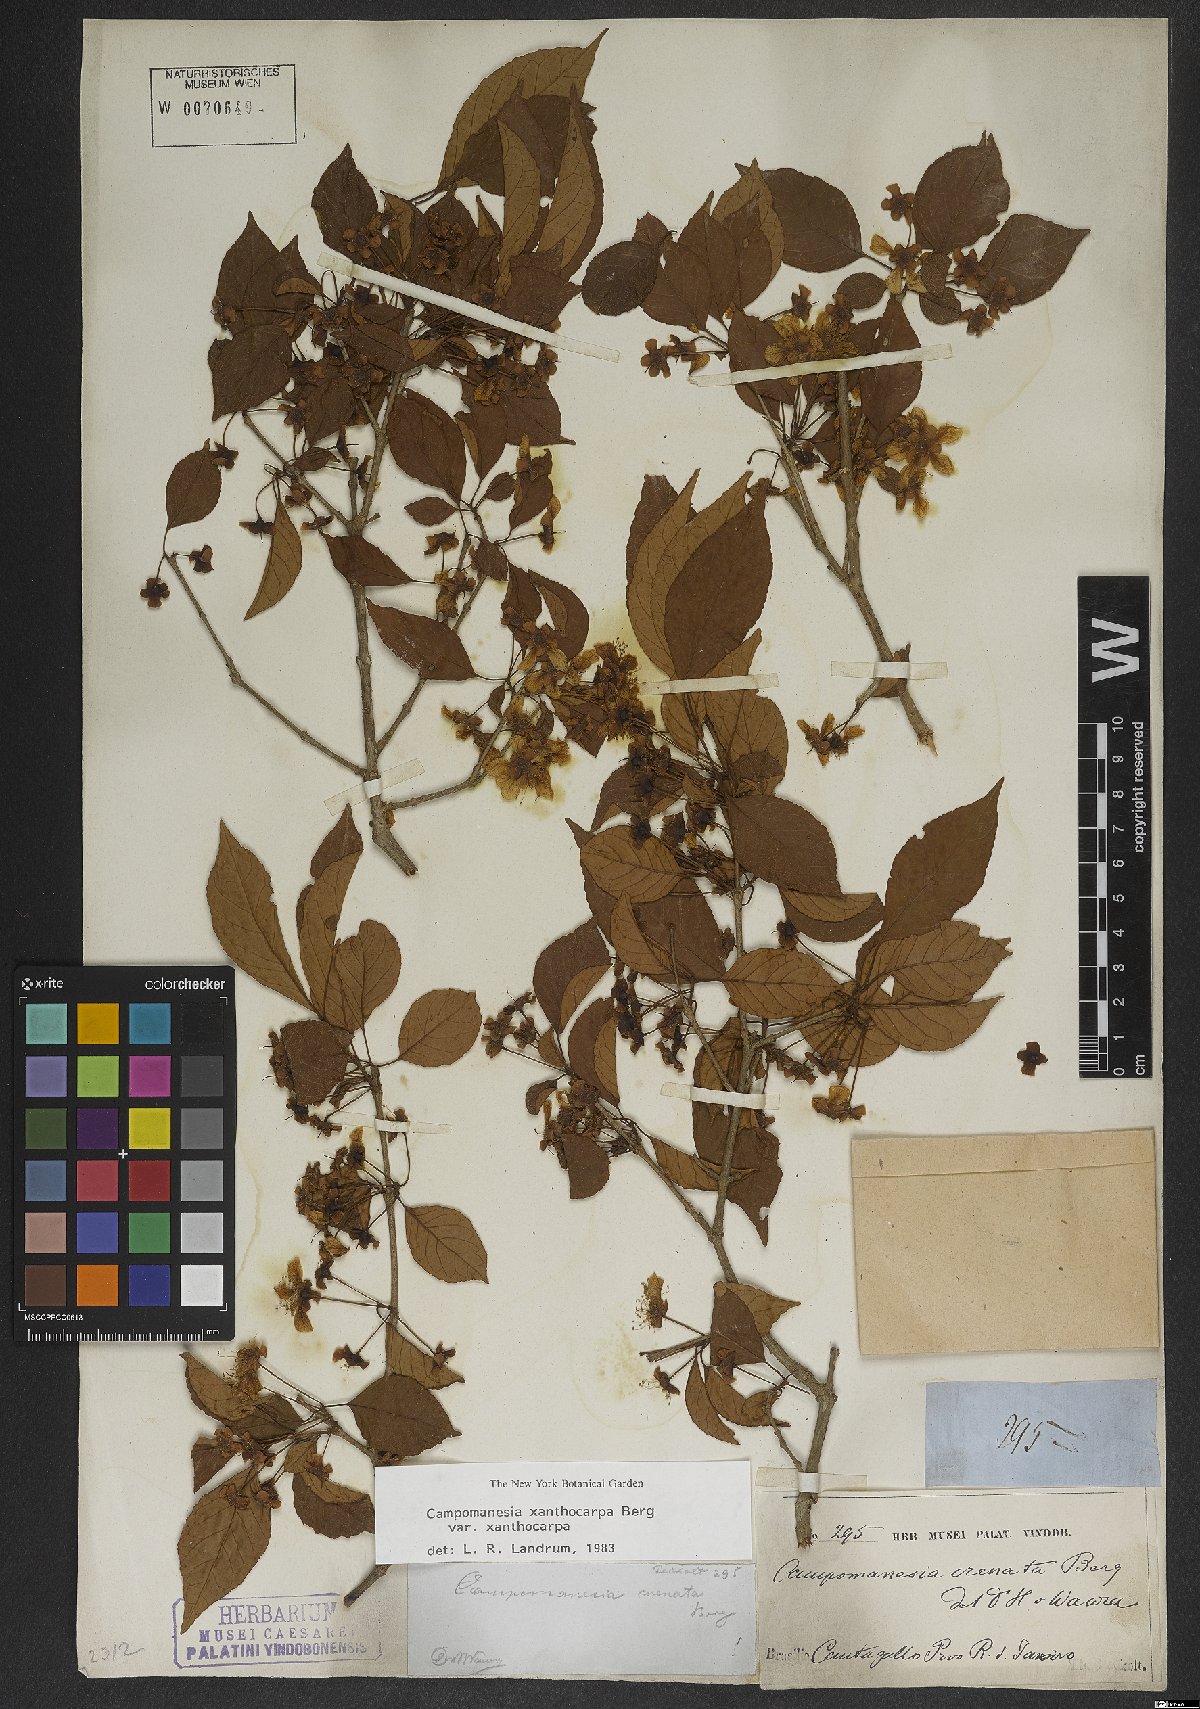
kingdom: Plantae
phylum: Tracheophyta
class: Magnoliopsida
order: Myrtales
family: Myrtaceae
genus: Campomanesia
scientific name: Campomanesia xanthocarpa
